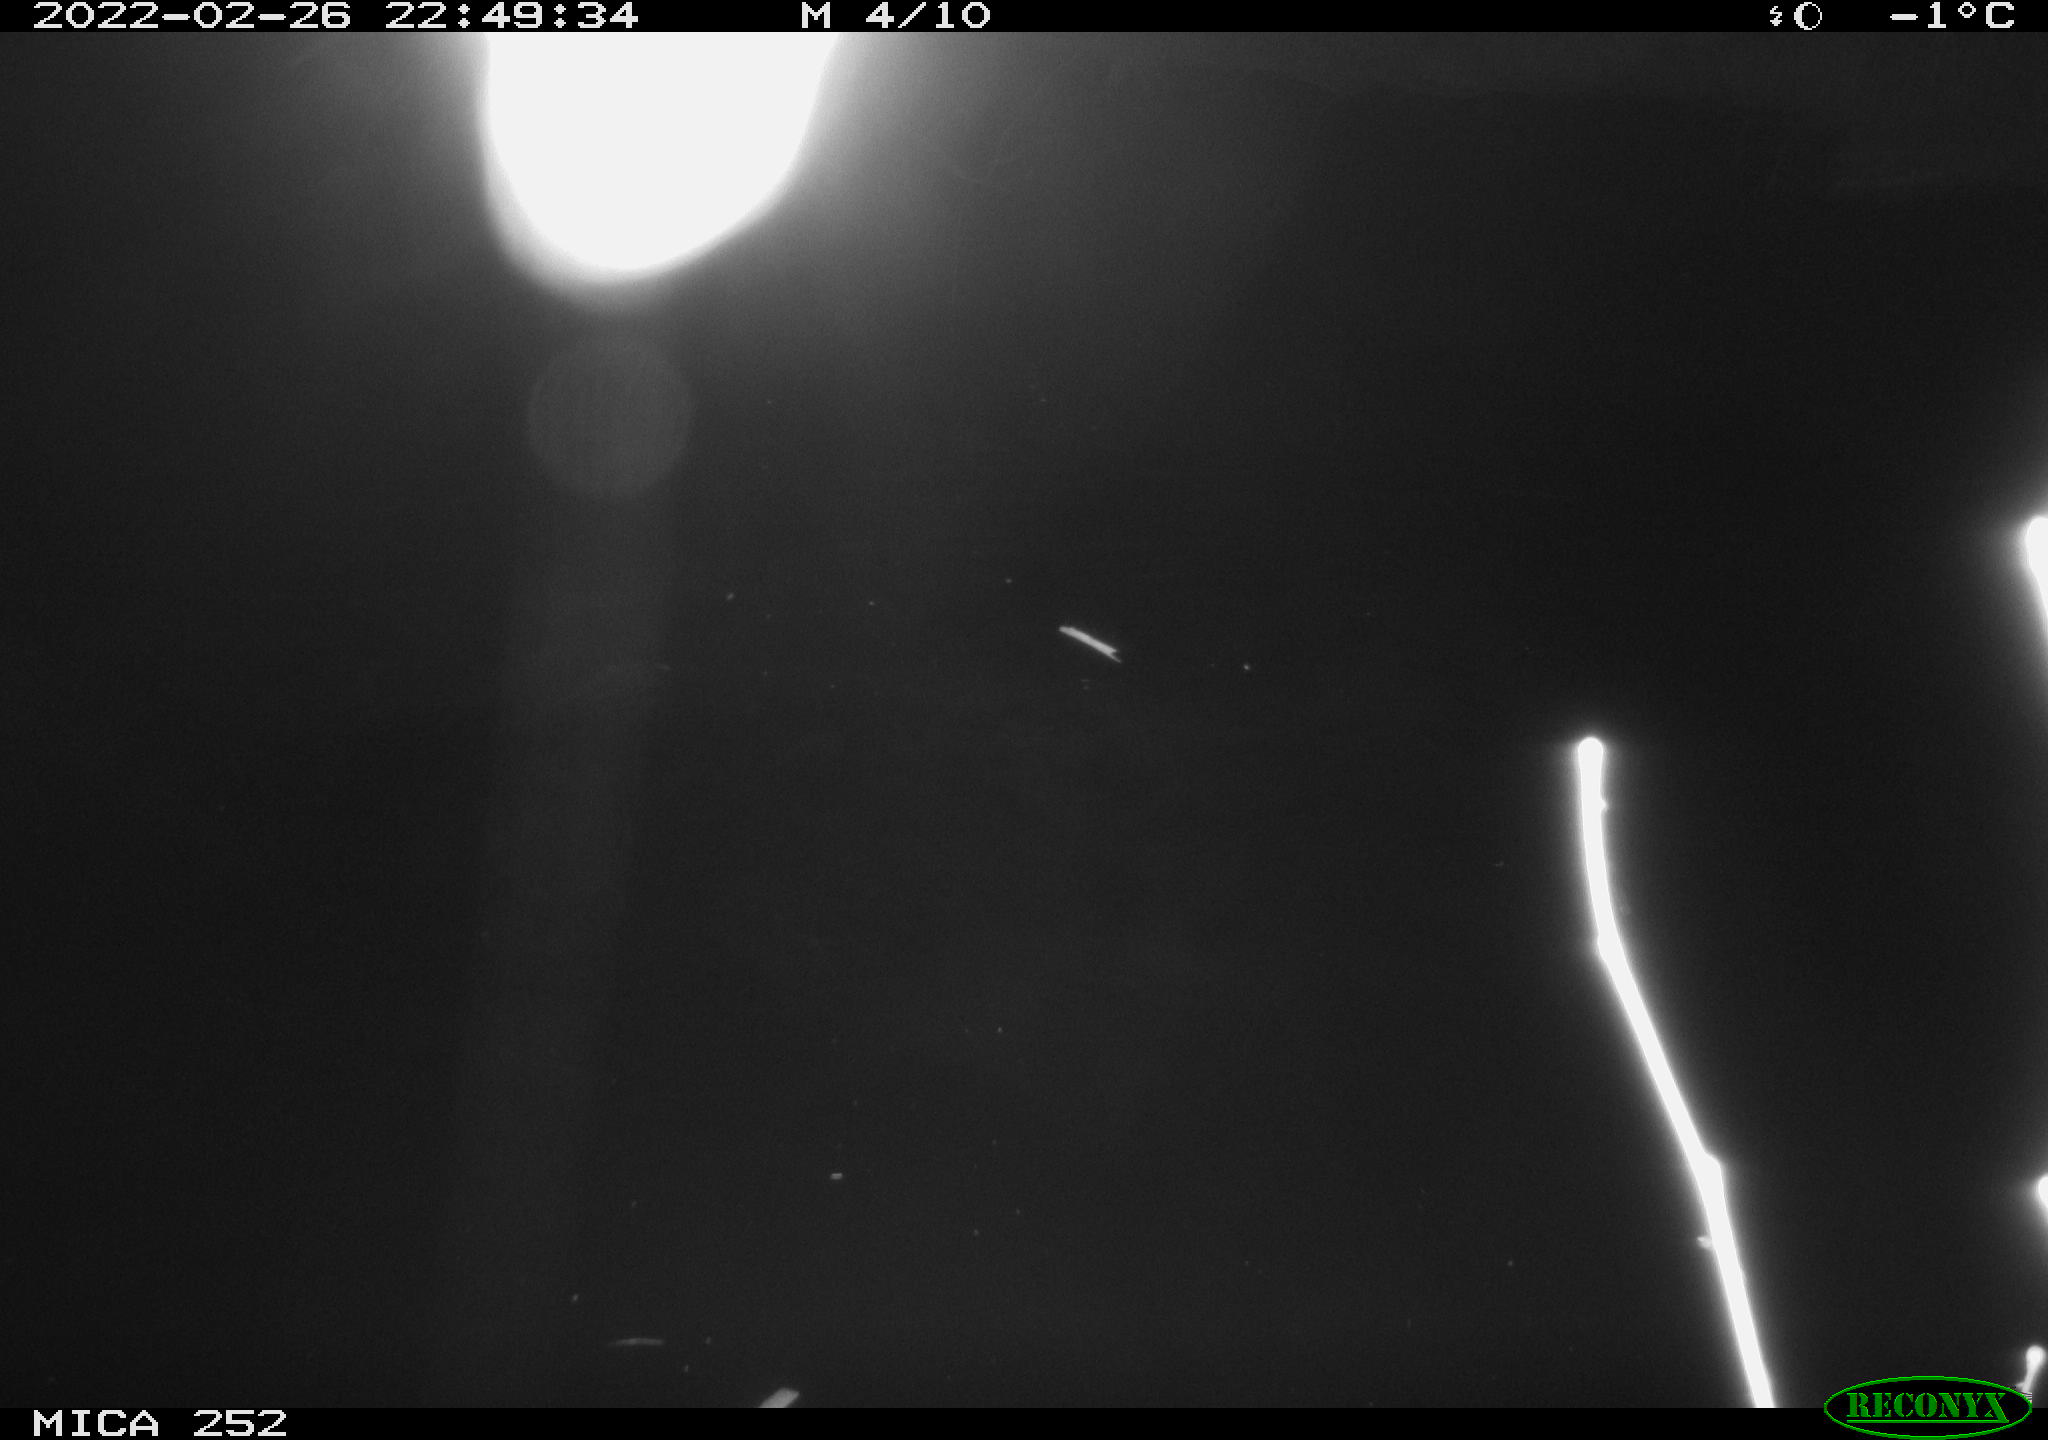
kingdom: Animalia
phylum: Chordata
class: Mammalia
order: Rodentia
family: Castoridae
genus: Castor
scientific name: Castor fiber
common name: Eurasian beaver
